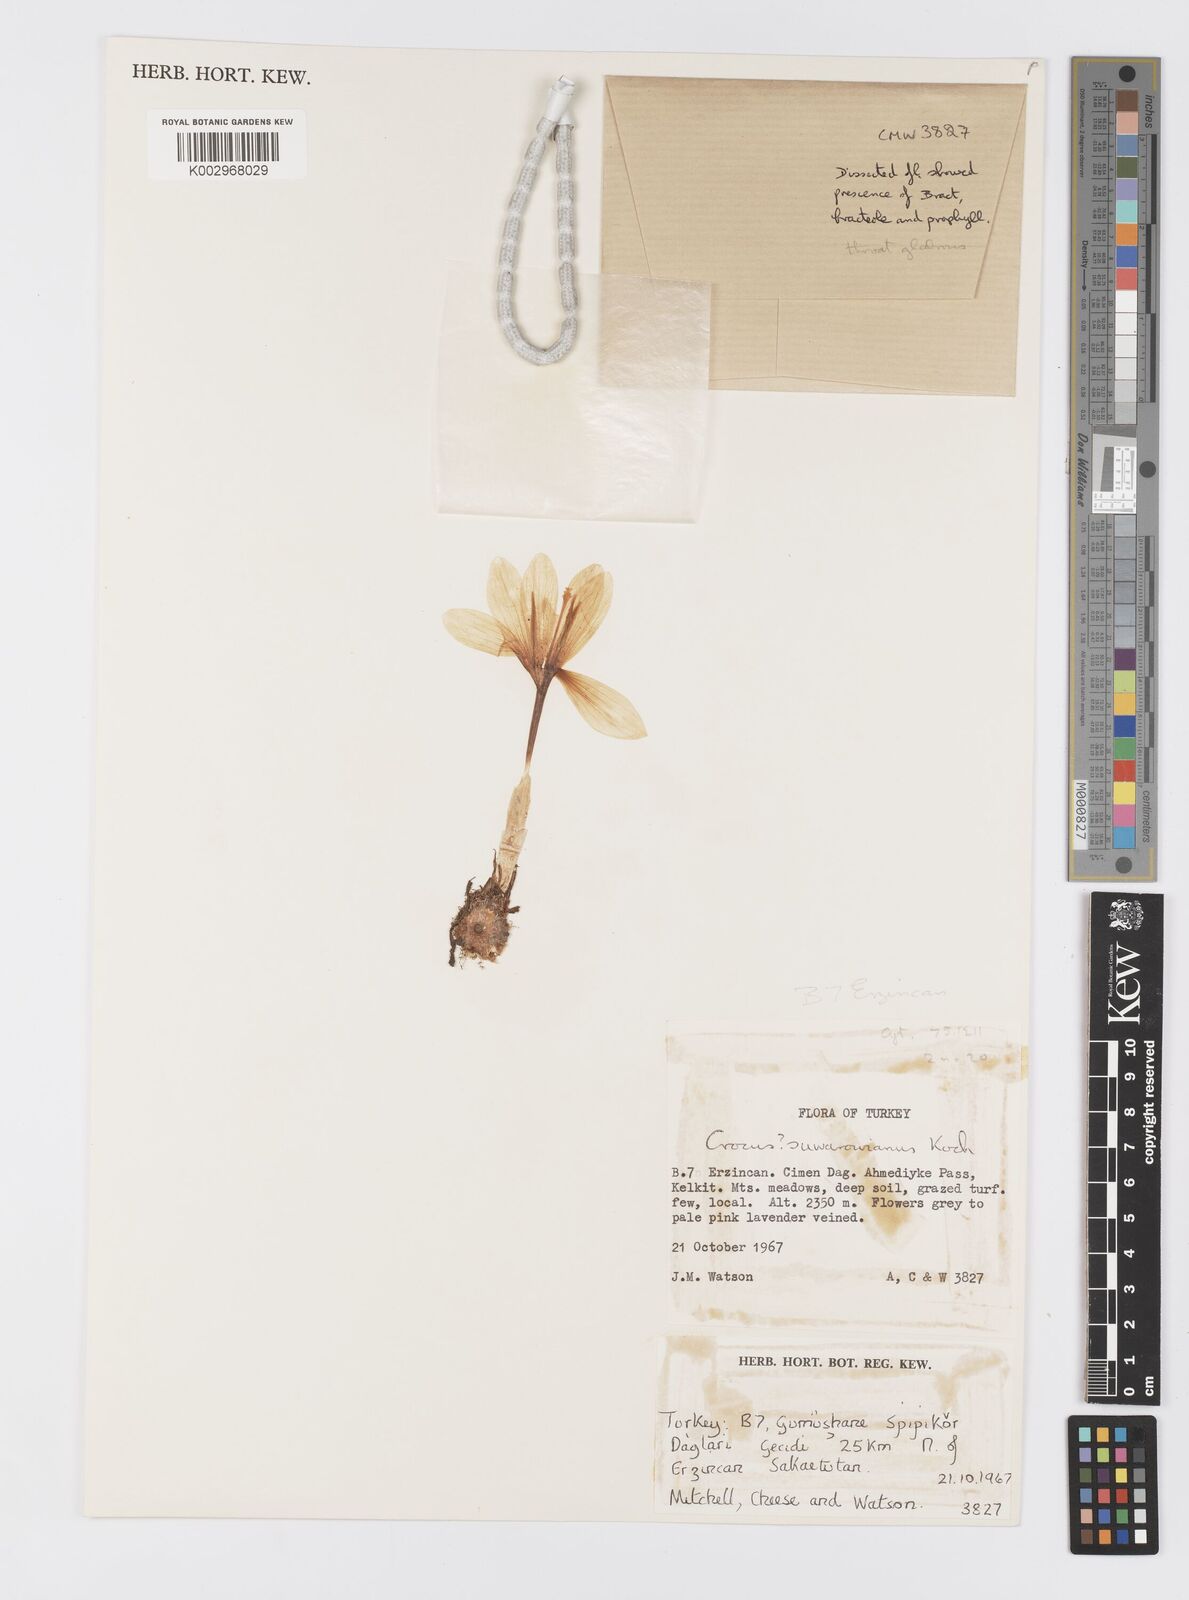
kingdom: Plantae
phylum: Tracheophyta
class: Liliopsida
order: Asparagales
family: Iridaceae
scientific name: Iridaceae
